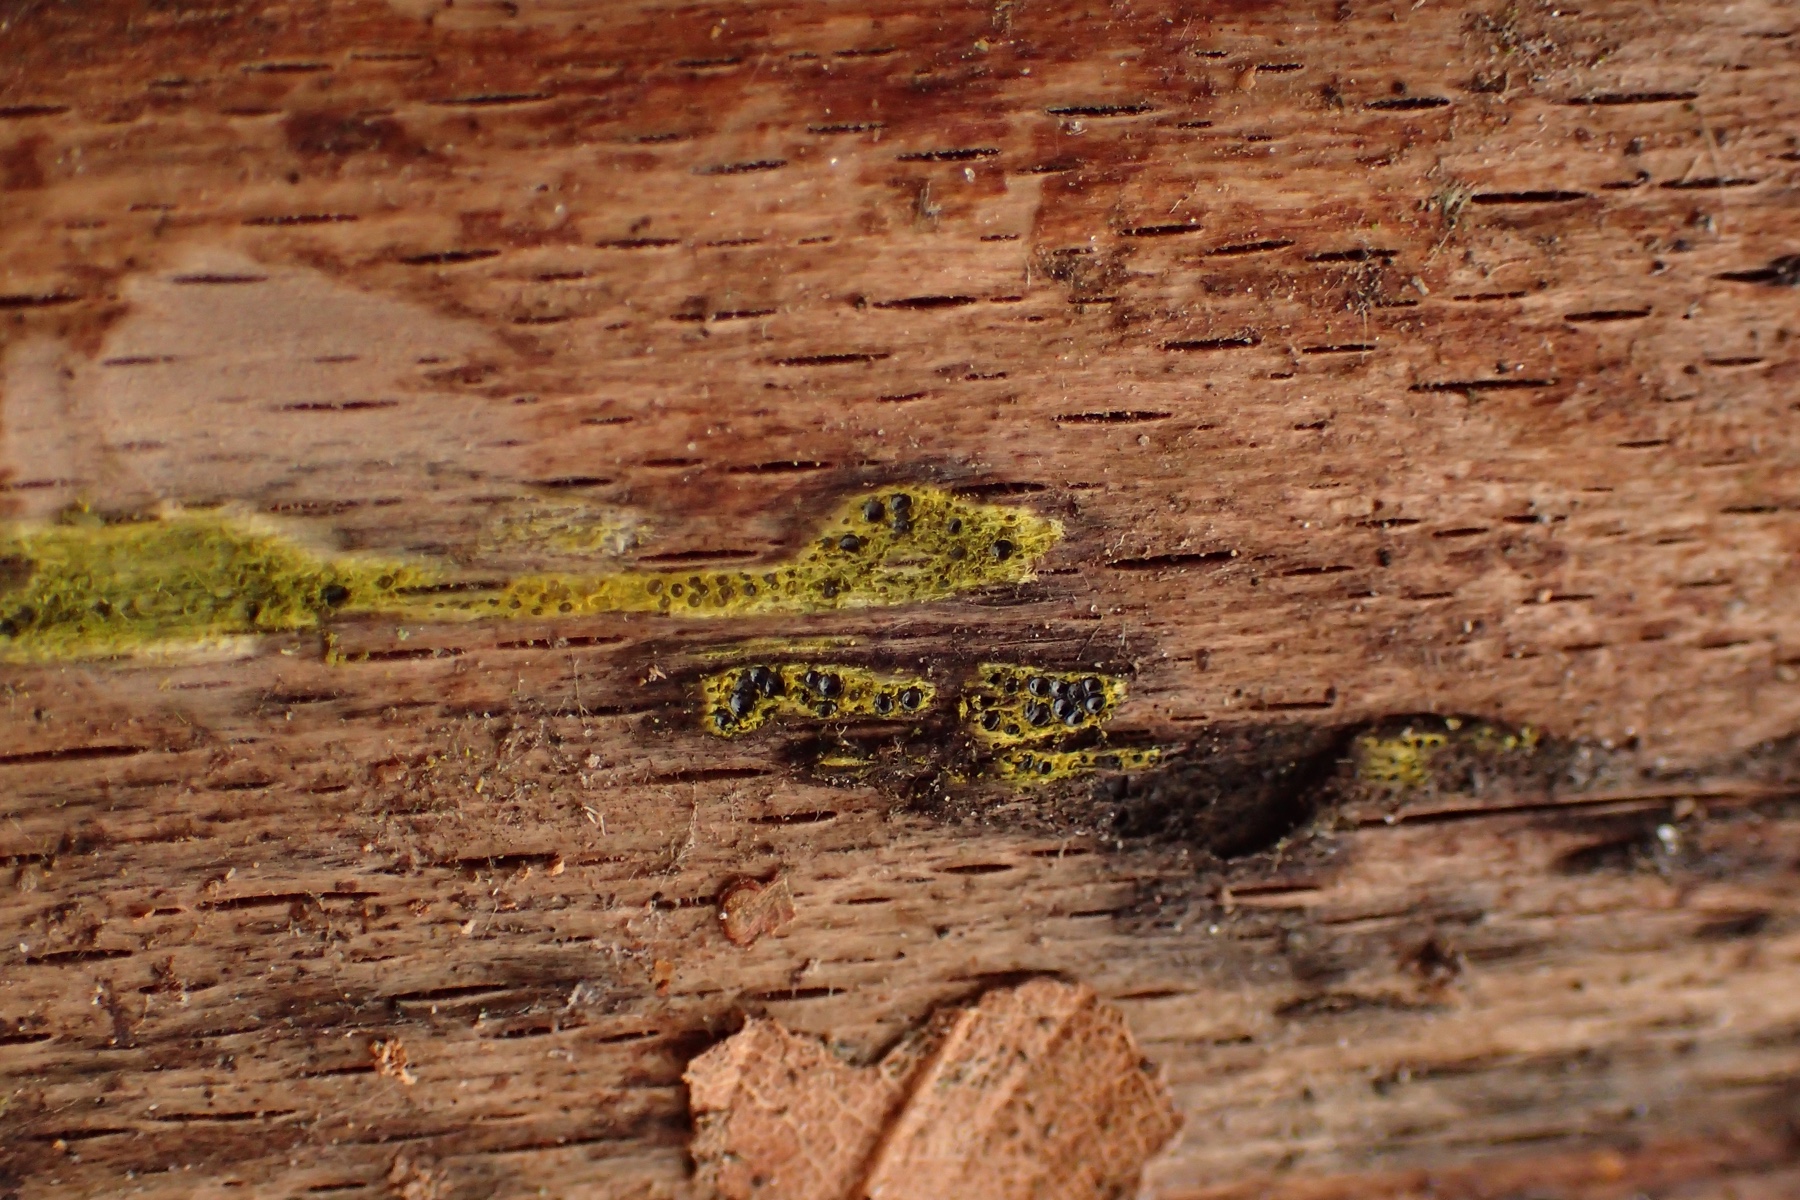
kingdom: Fungi
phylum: Ascomycota
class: Sordariomycetes
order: Xylariales
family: Diatrypaceae
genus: Eutypa
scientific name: Eutypa flavovirens
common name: grønkødet kulskorpe
